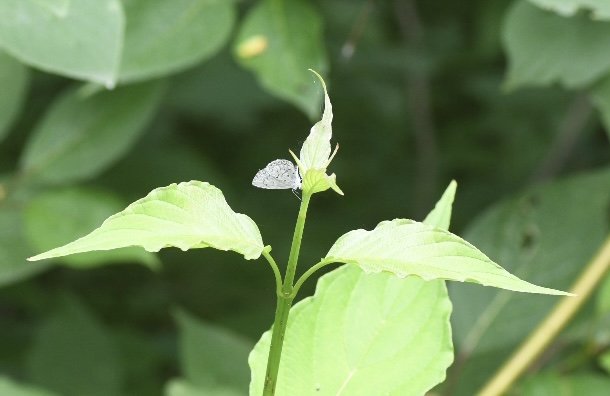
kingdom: Animalia
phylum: Arthropoda
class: Insecta
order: Lepidoptera
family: Lycaenidae
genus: Celastrina
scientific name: Celastrina lucia
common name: Northern Spring Azure
